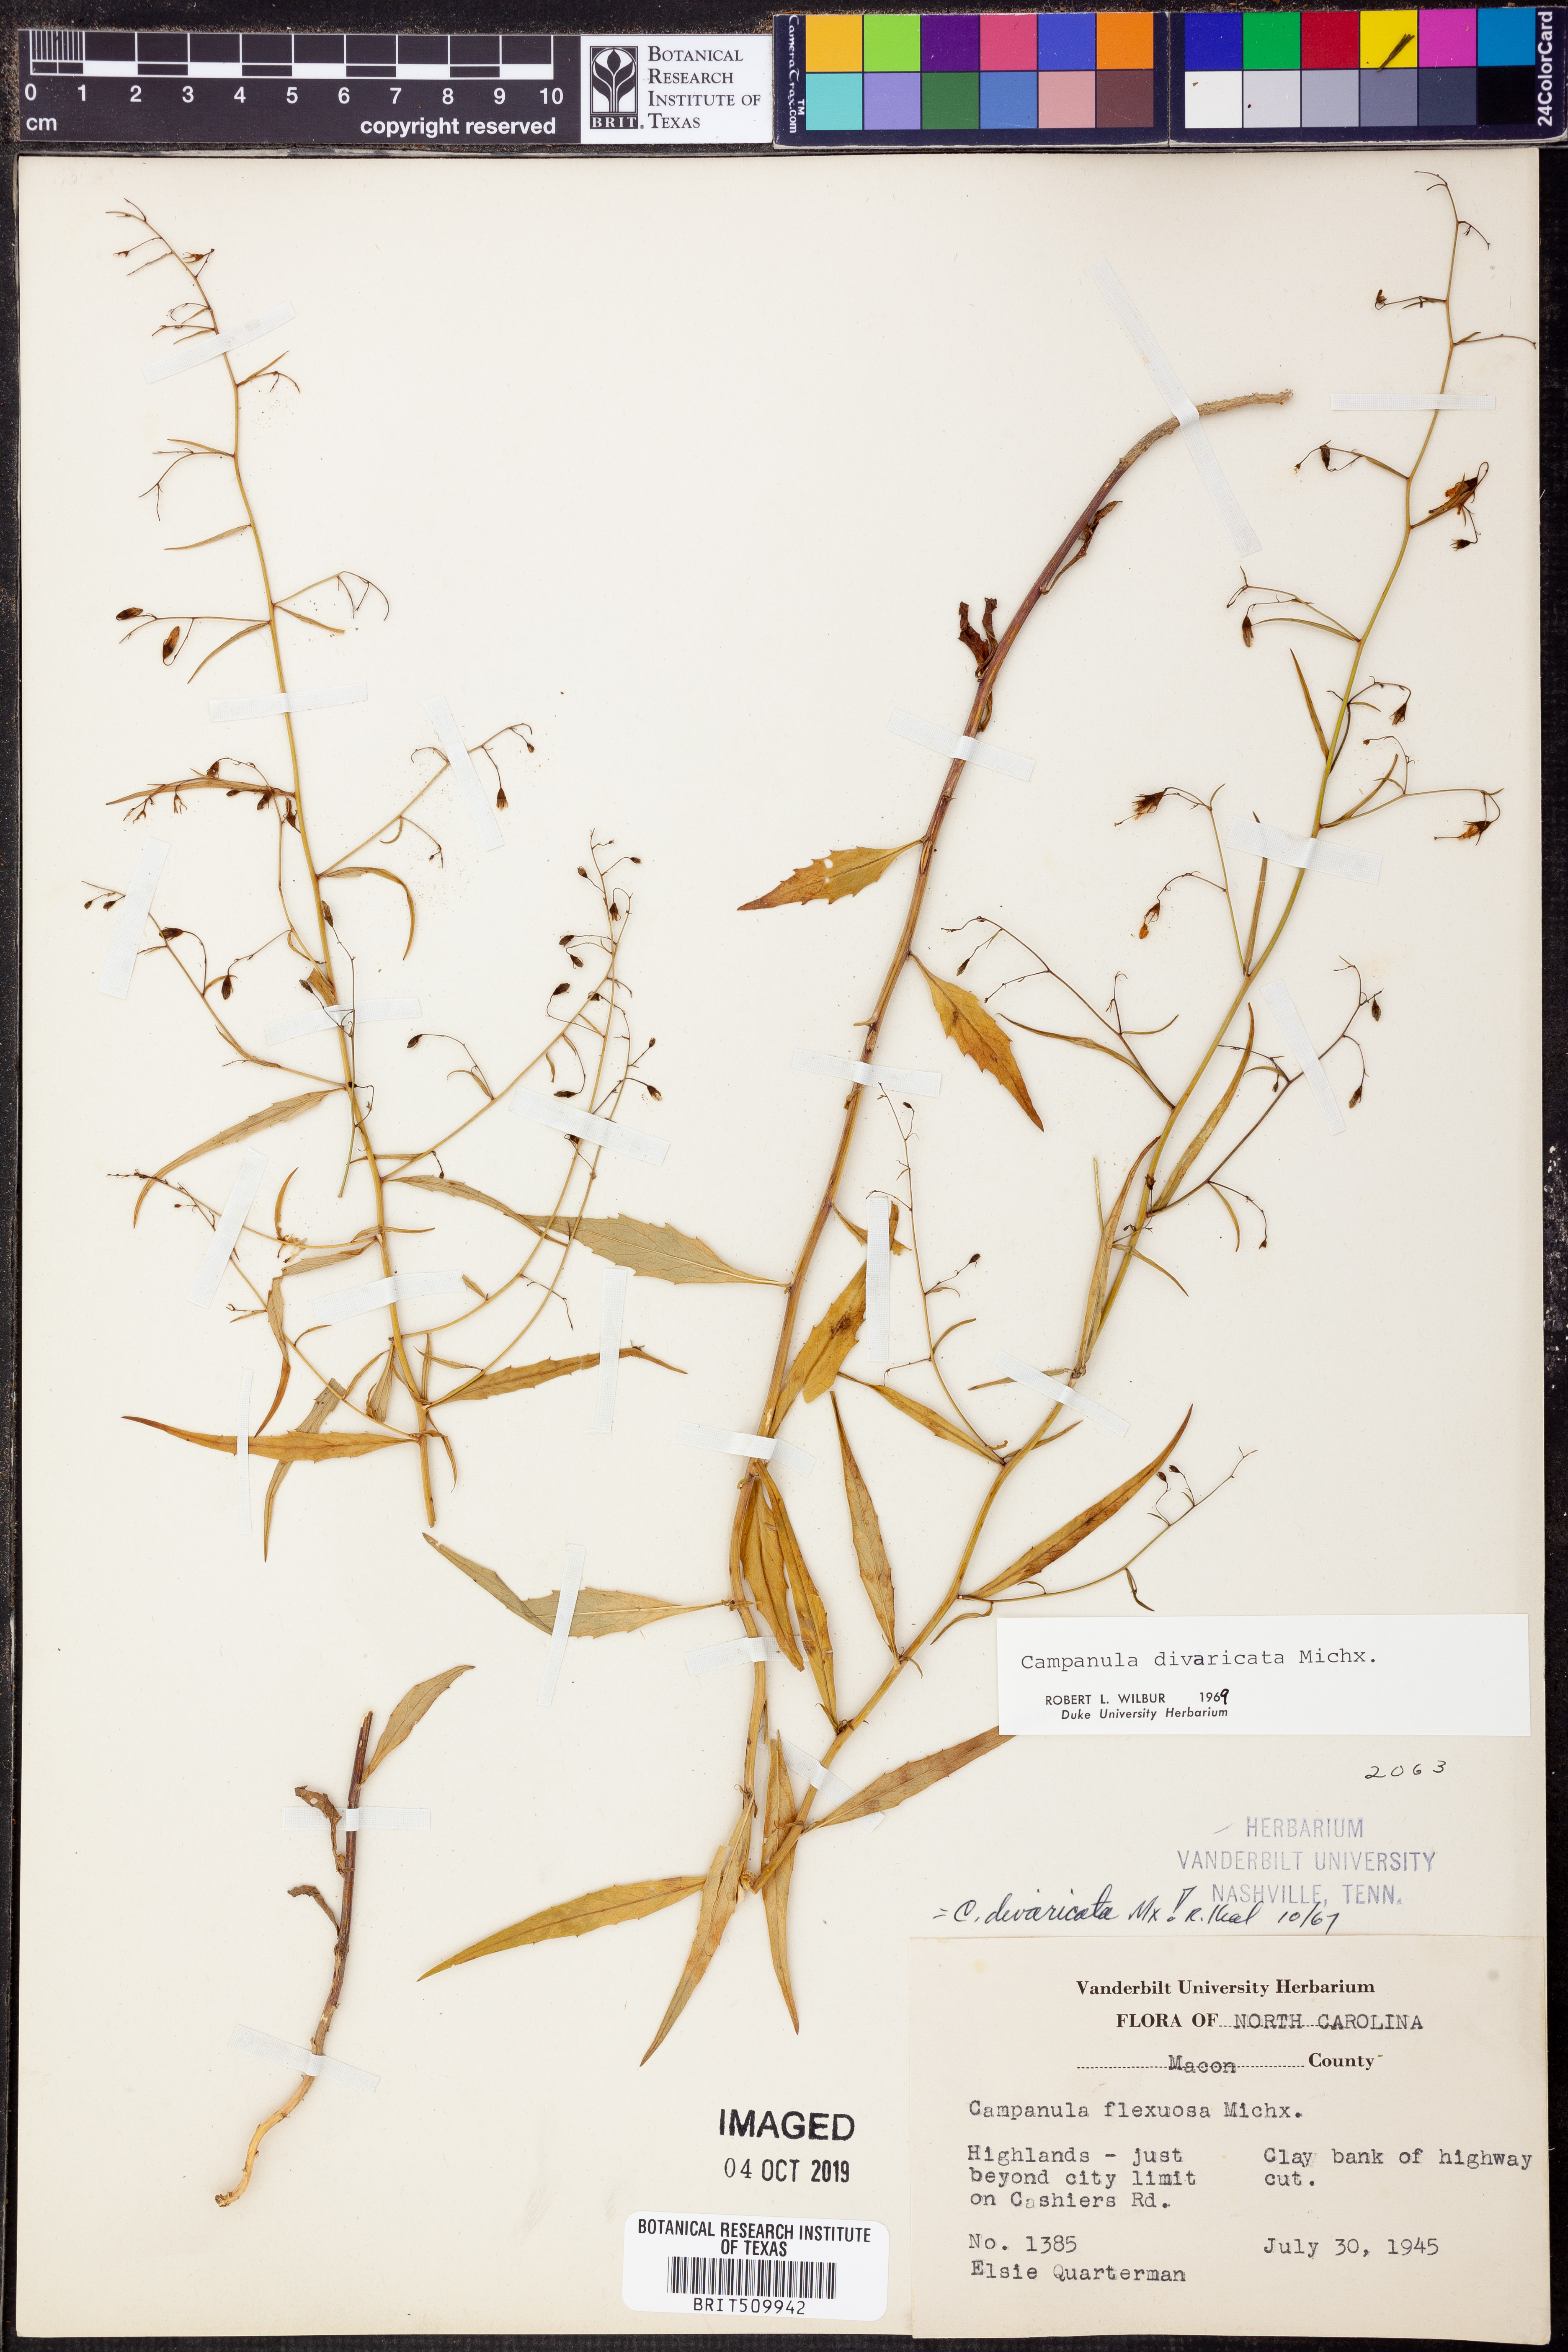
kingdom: Plantae
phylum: Tracheophyta
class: Magnoliopsida
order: Asterales
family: Campanulaceae
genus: Campanula
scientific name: Campanula divaricata
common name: Appalachian bellflower
